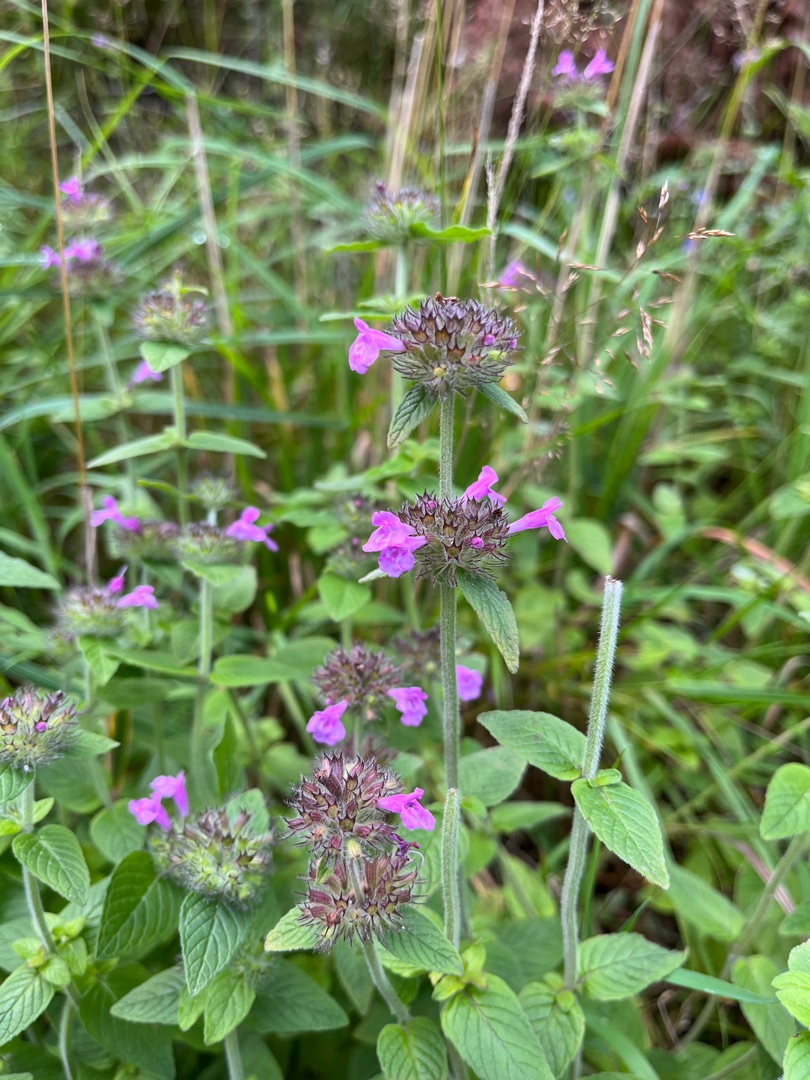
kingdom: Plantae
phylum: Tracheophyta
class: Magnoliopsida
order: Lamiales
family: Lamiaceae
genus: Clinopodium
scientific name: Clinopodium vulgare
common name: Kransbørste
